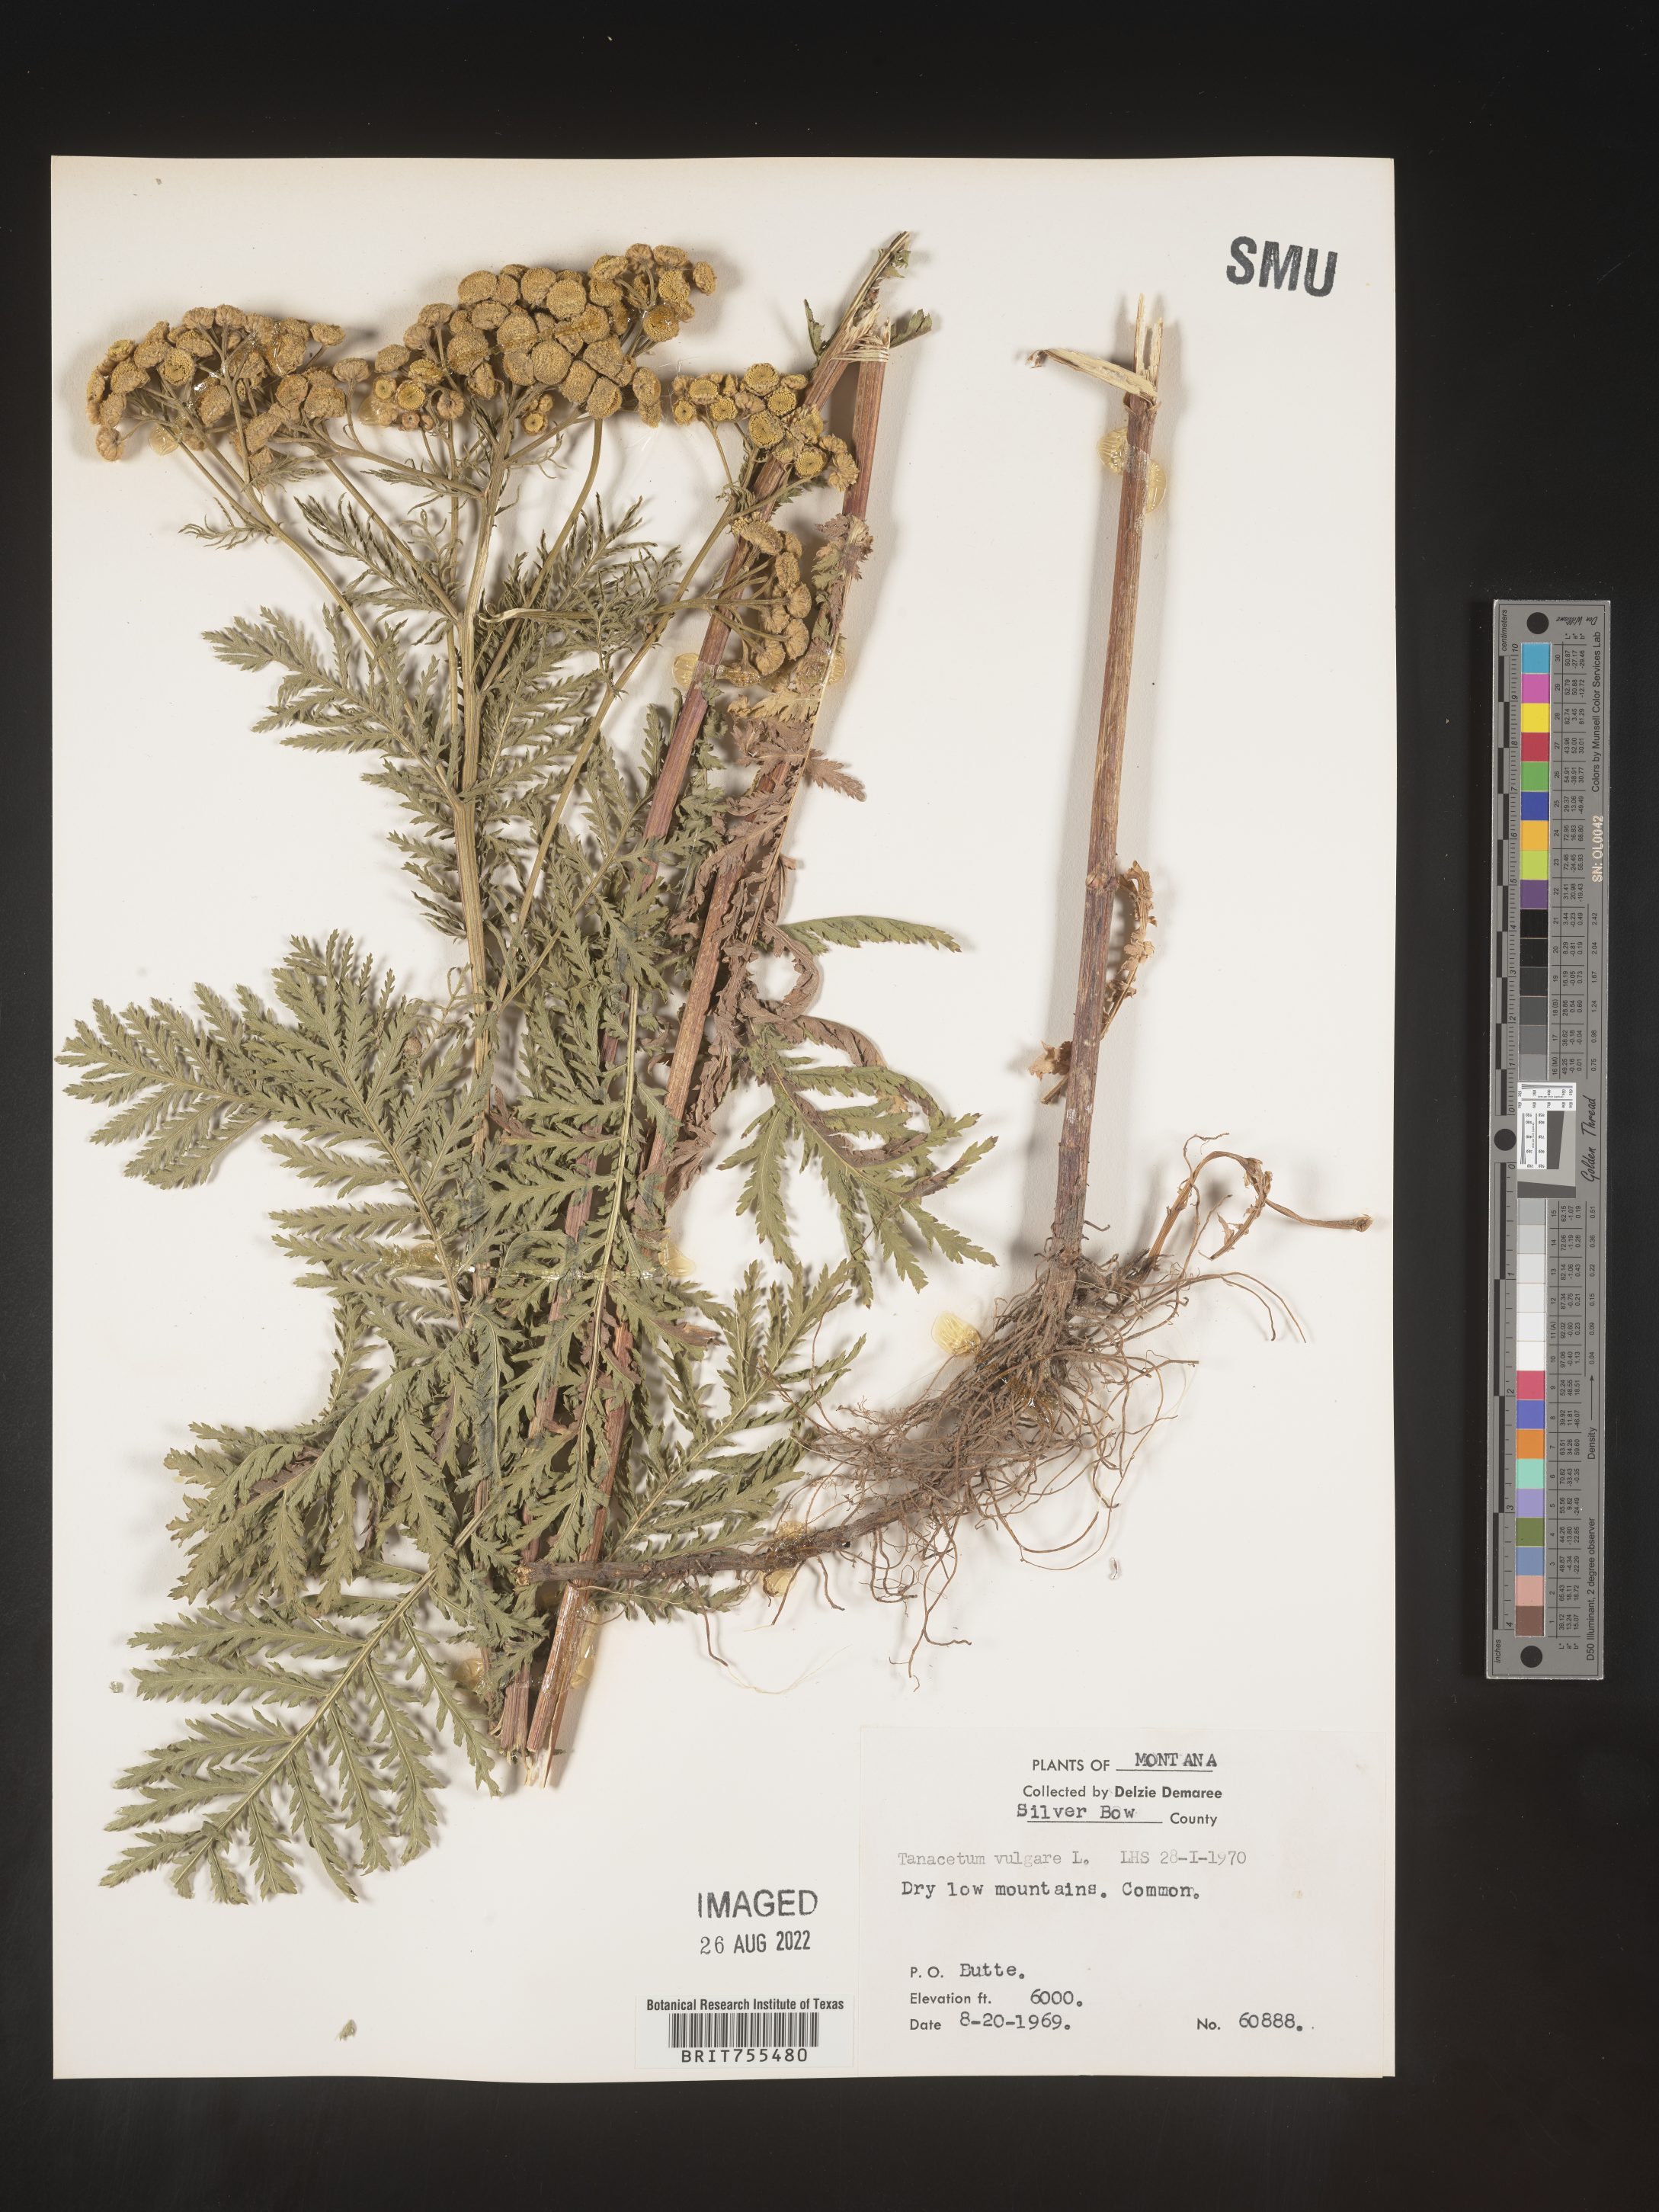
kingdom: Plantae
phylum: Tracheophyta
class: Magnoliopsida
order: Asterales
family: Asteraceae
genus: Tanacetum
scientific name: Tanacetum vulgare
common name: Common tansy
